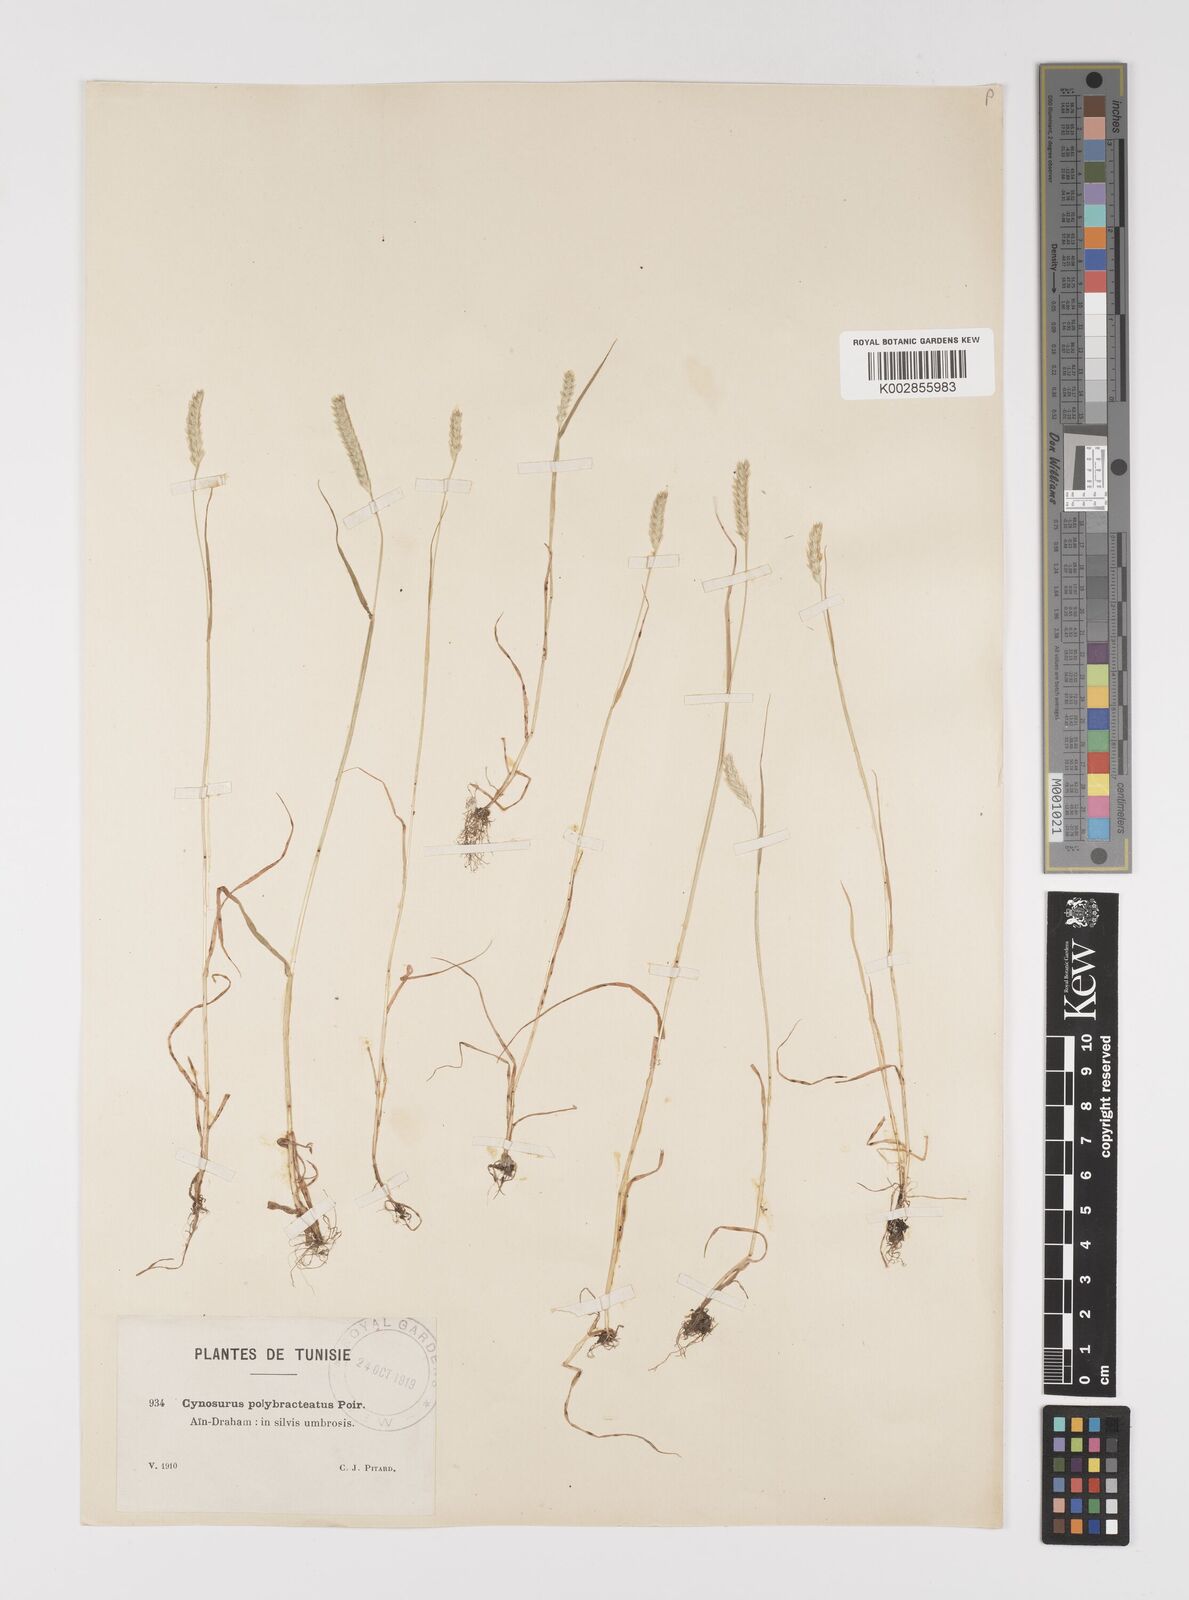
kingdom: Plantae
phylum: Tracheophyta
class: Liliopsida
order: Poales
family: Poaceae
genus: Cynosurus
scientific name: Cynosurus cristatus
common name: Crested dog's-tail
